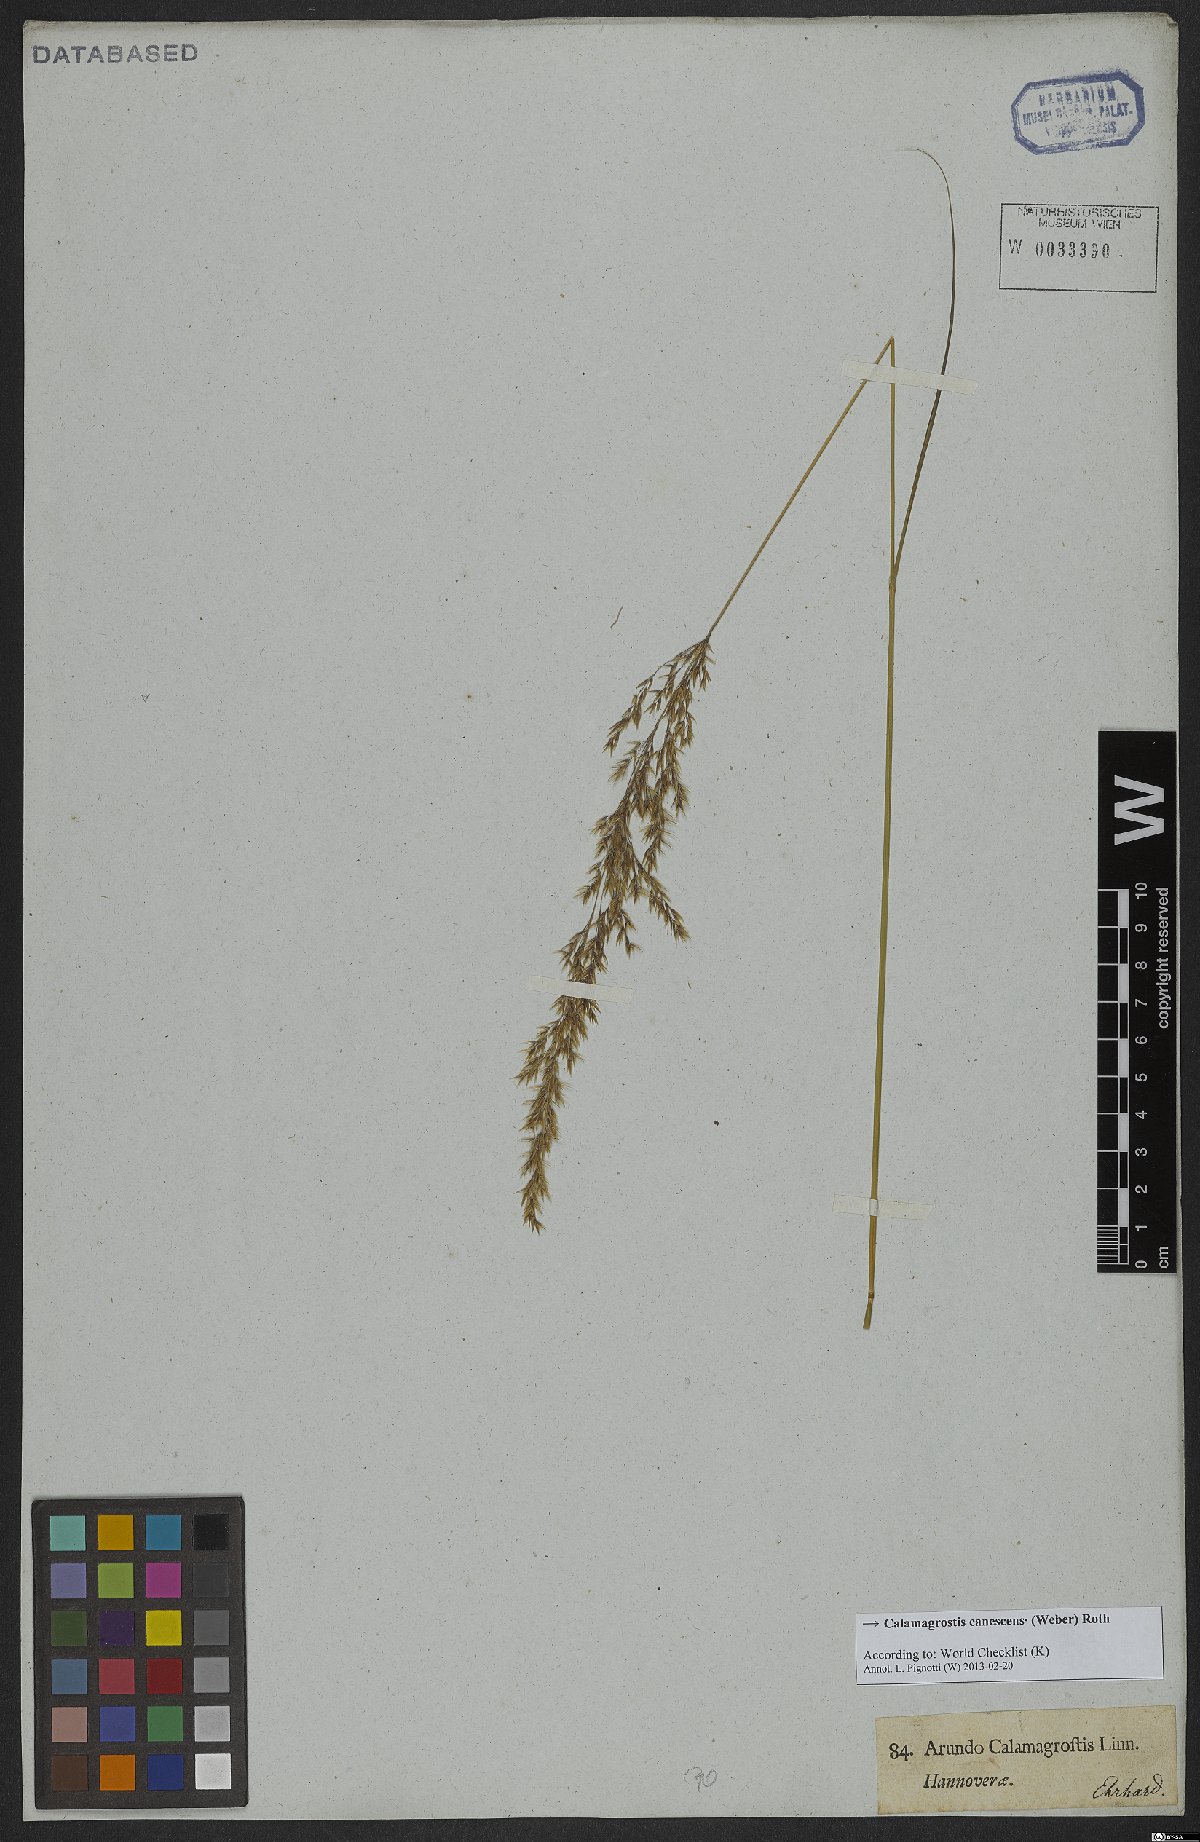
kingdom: Plantae
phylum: Tracheophyta
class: Liliopsida
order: Poales
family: Poaceae
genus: Calamagrostis
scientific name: Calamagrostis canescens
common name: Purple small-reed
